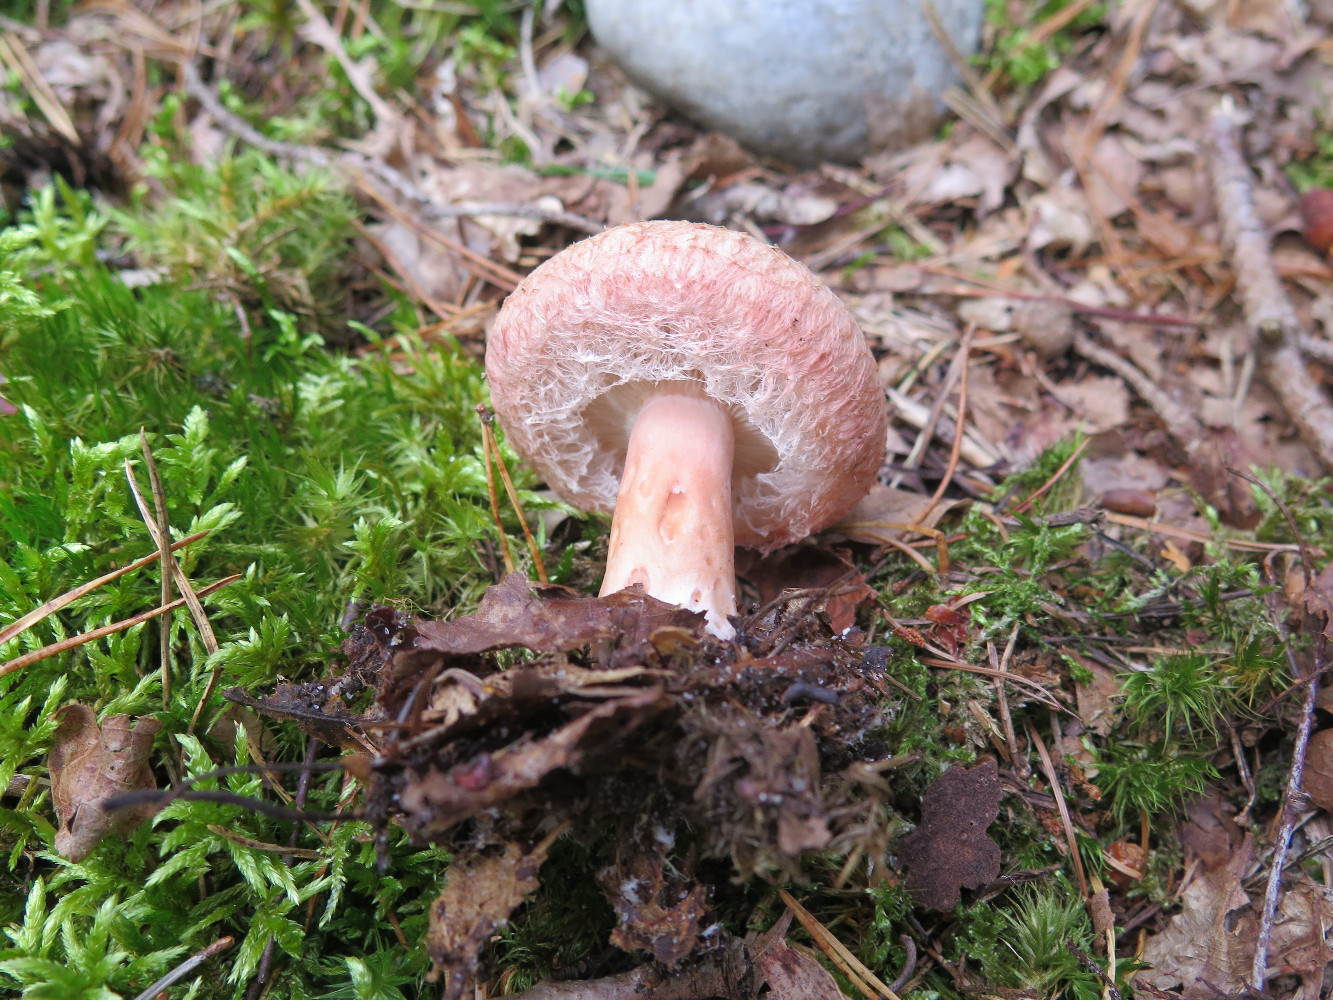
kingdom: Fungi
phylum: Basidiomycota
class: Agaricomycetes
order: Russulales
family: Russulaceae
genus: Lactarius
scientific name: Lactarius torminosus
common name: skægget mælkehat
